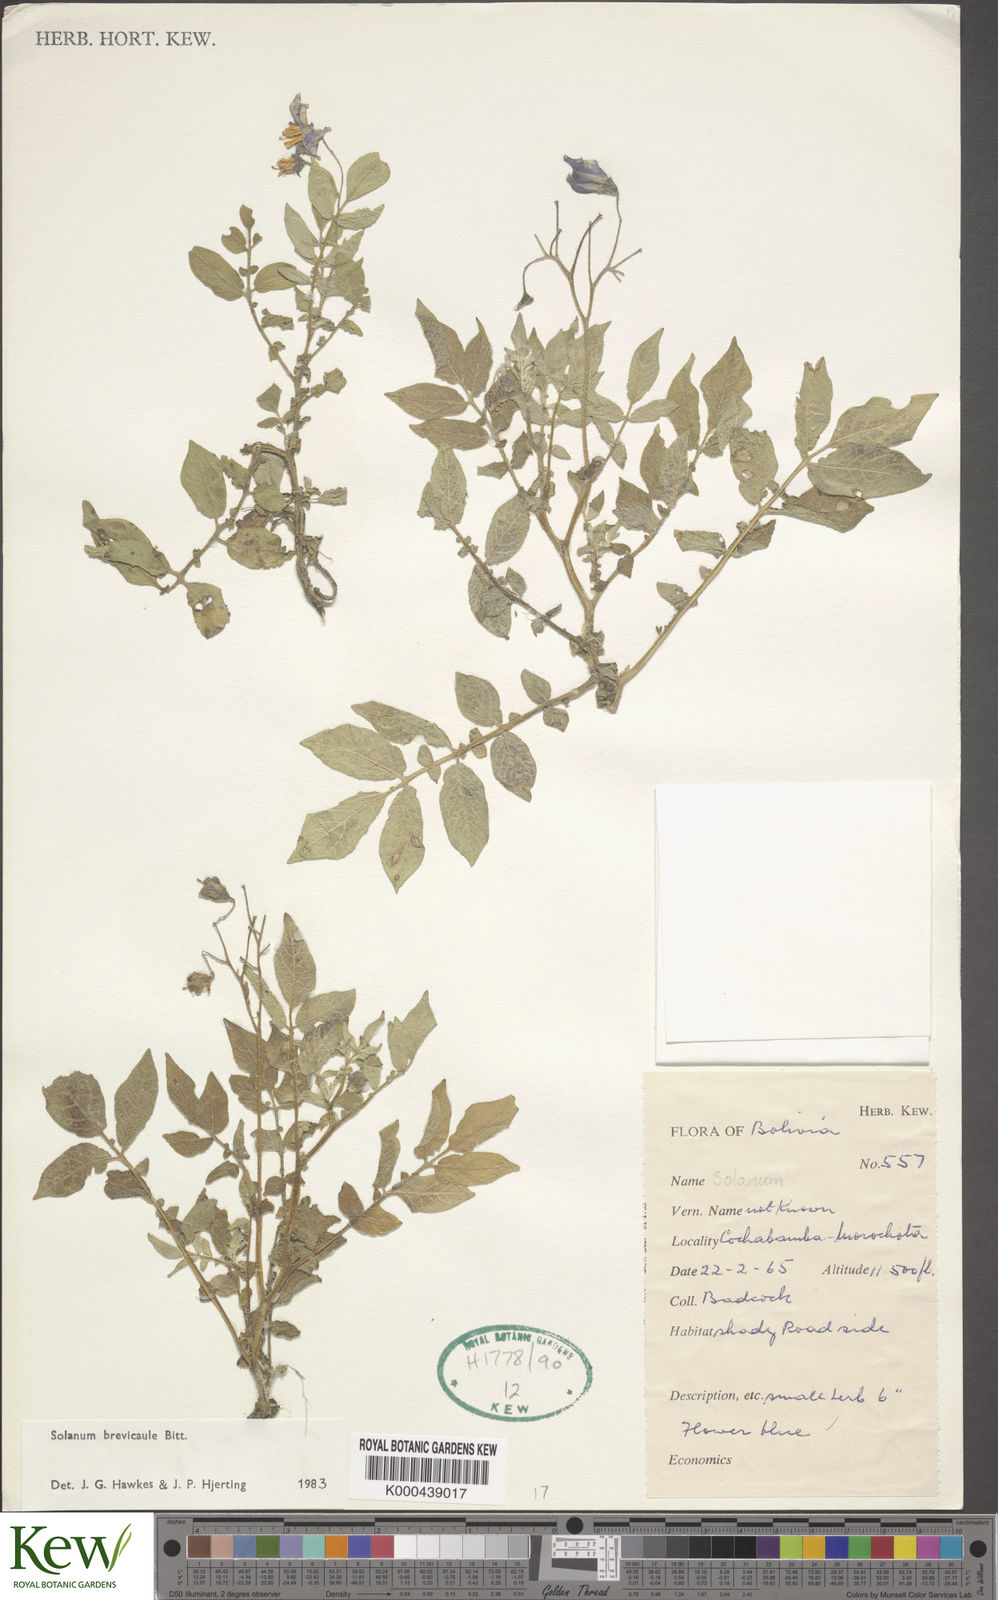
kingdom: Plantae
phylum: Tracheophyta
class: Magnoliopsida
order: Solanales
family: Solanaceae
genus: Solanum
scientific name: Solanum brevicaule
